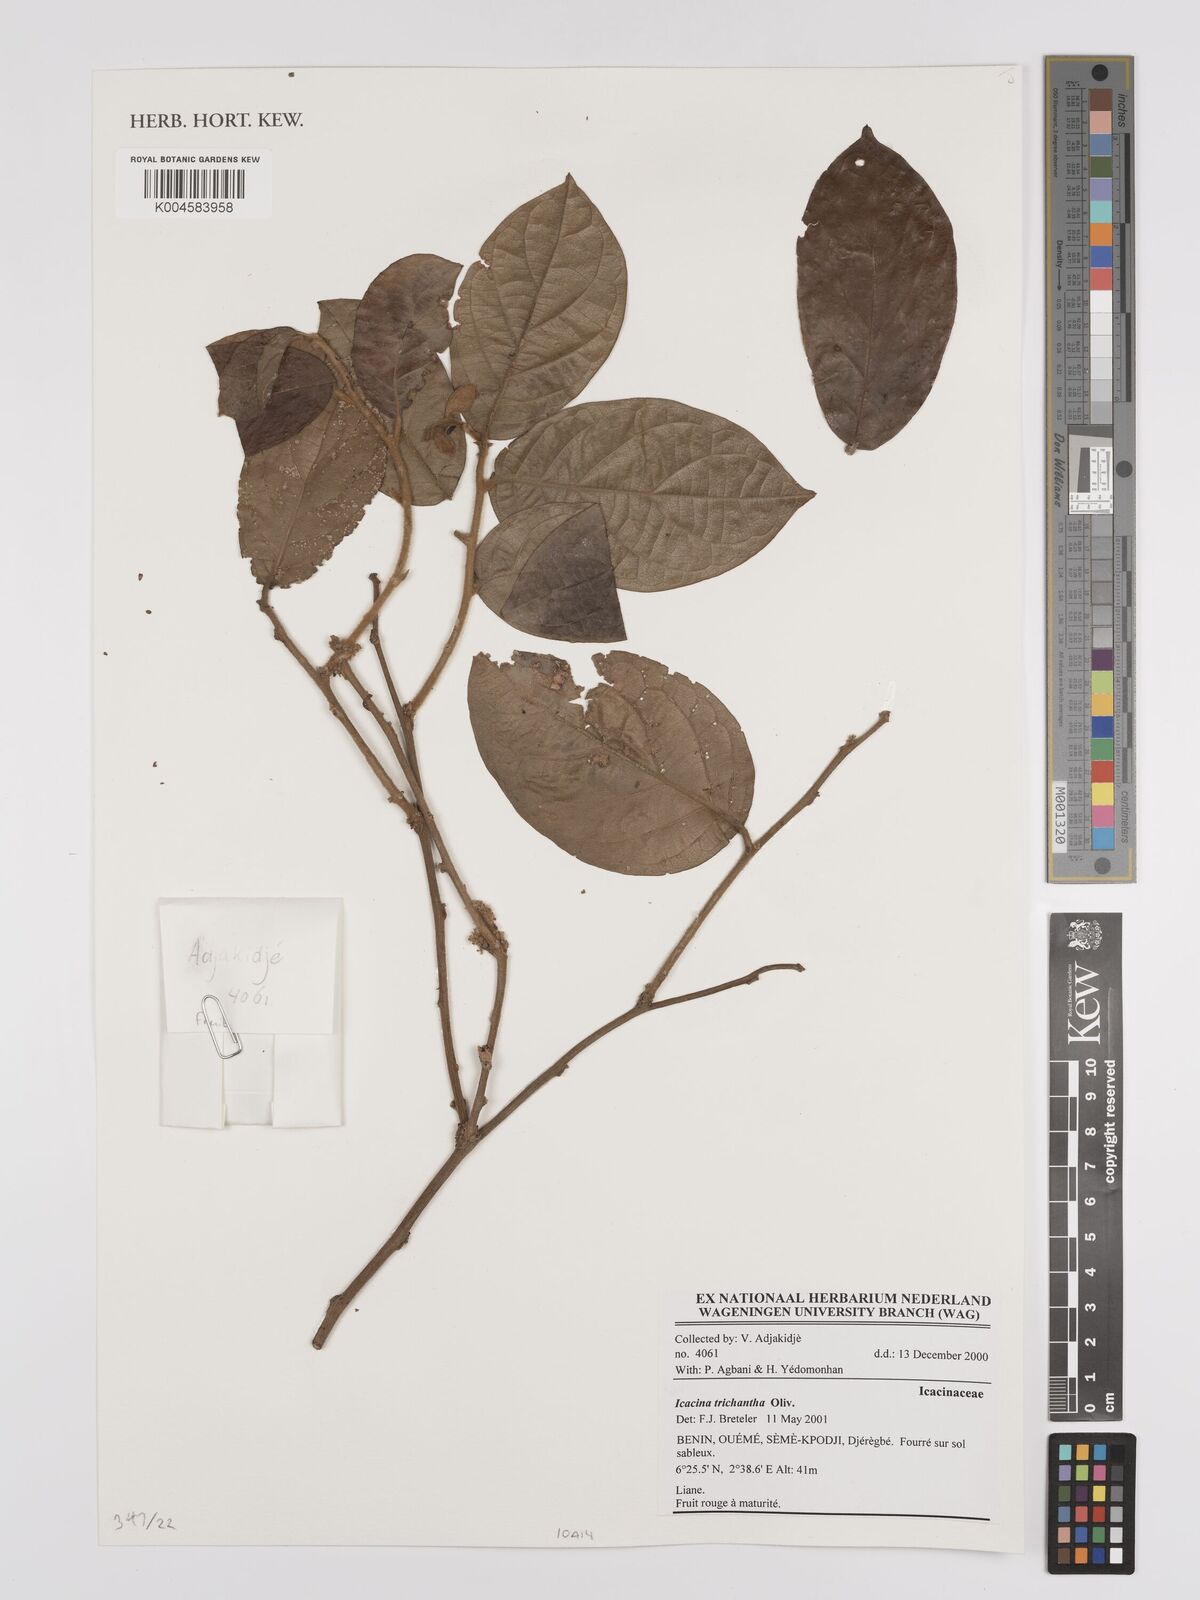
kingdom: Plantae
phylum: Tracheophyta
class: Magnoliopsida
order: Icacinales
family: Icacinaceae
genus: Icacina
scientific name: Icacina trichantha
